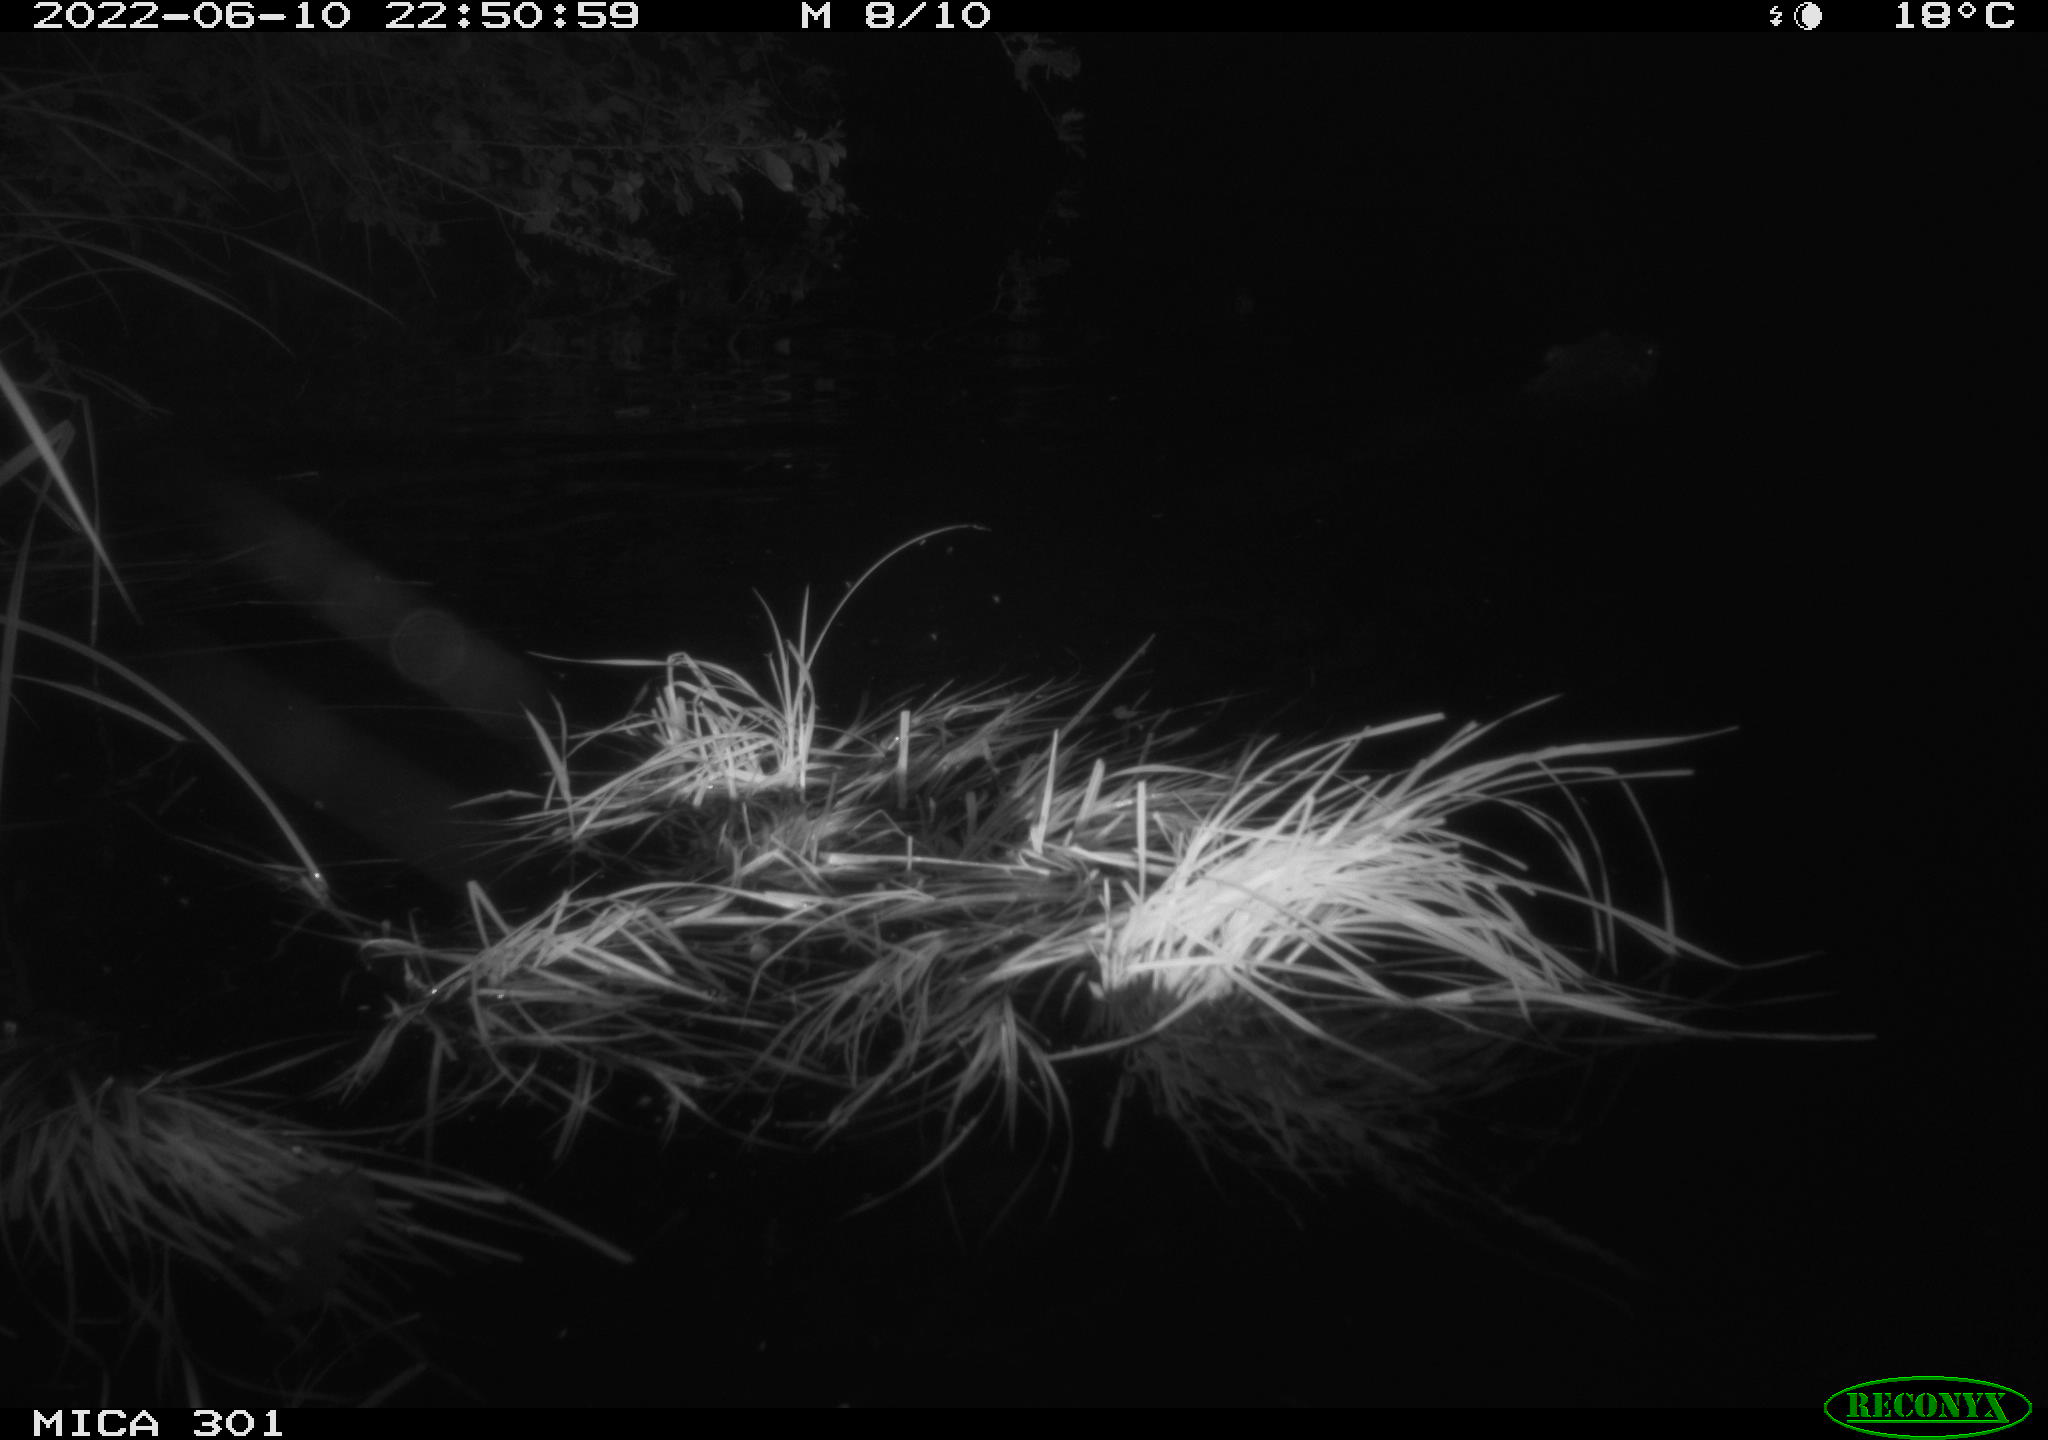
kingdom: Animalia
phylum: Chordata
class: Mammalia
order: Rodentia
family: Castoridae
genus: Castor
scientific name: Castor fiber
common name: Eurasian beaver
